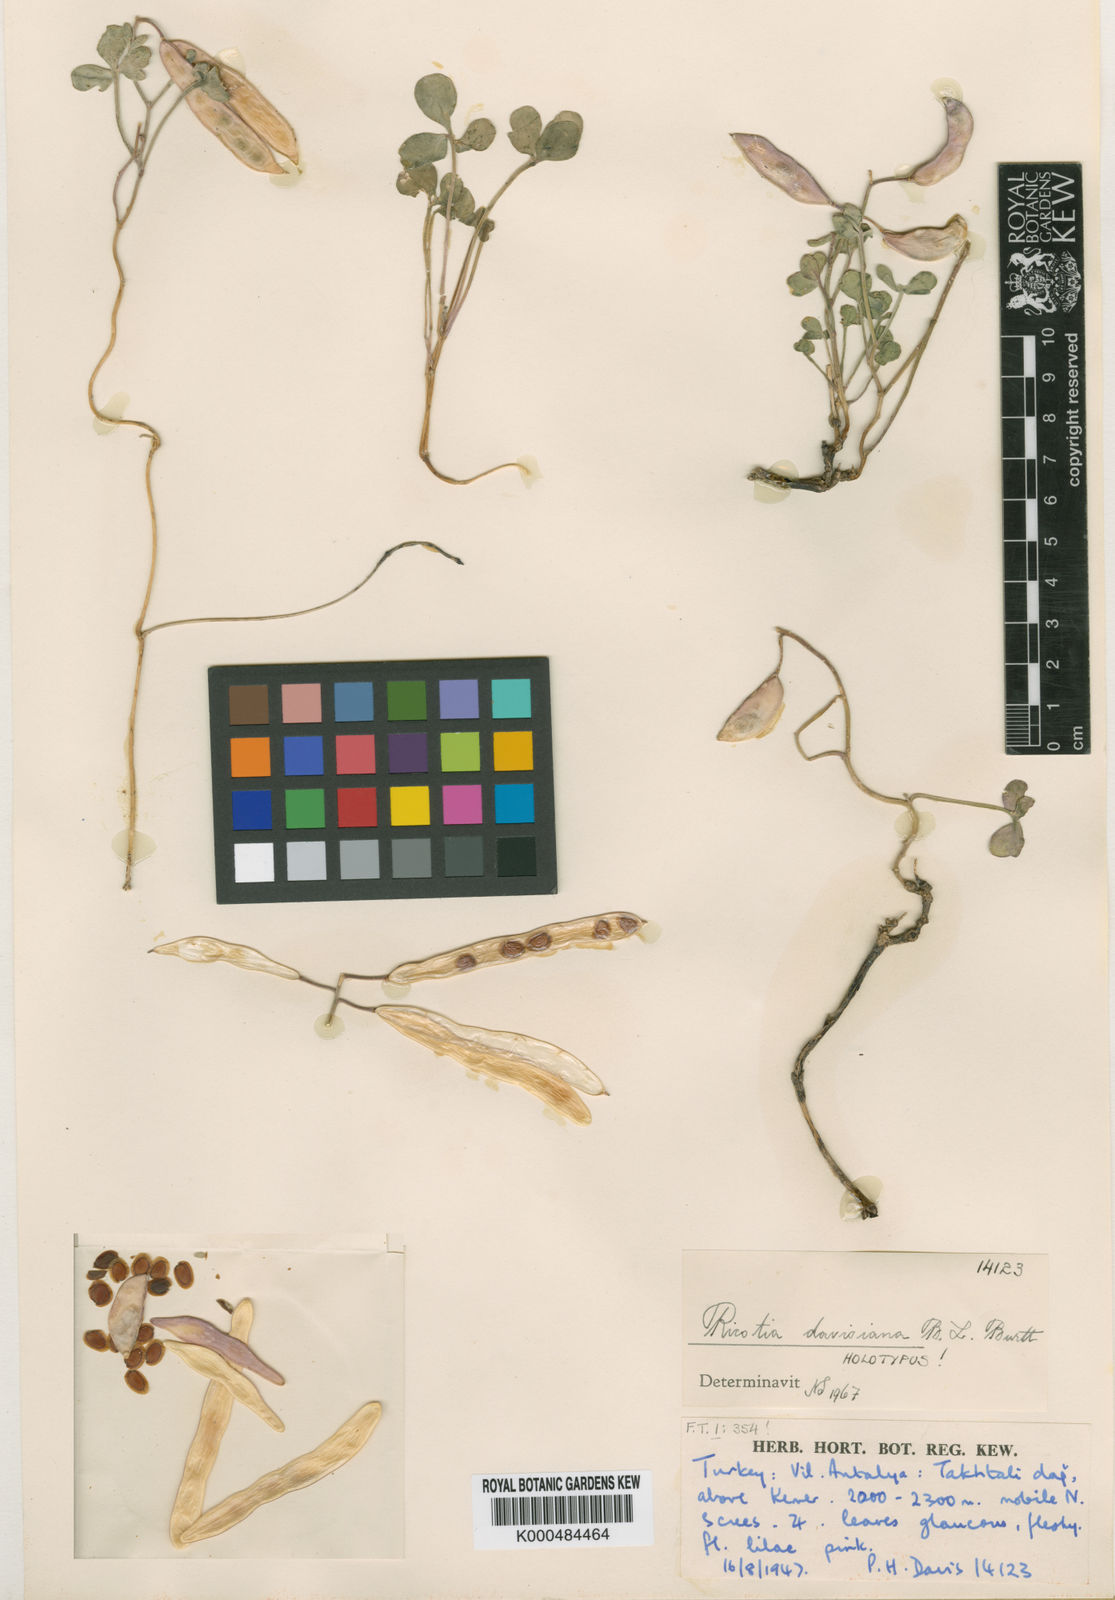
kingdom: Plantae
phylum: Tracheophyta
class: Magnoliopsida
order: Brassicales
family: Brassicaceae
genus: Ricotia
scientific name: Ricotia davisiana
